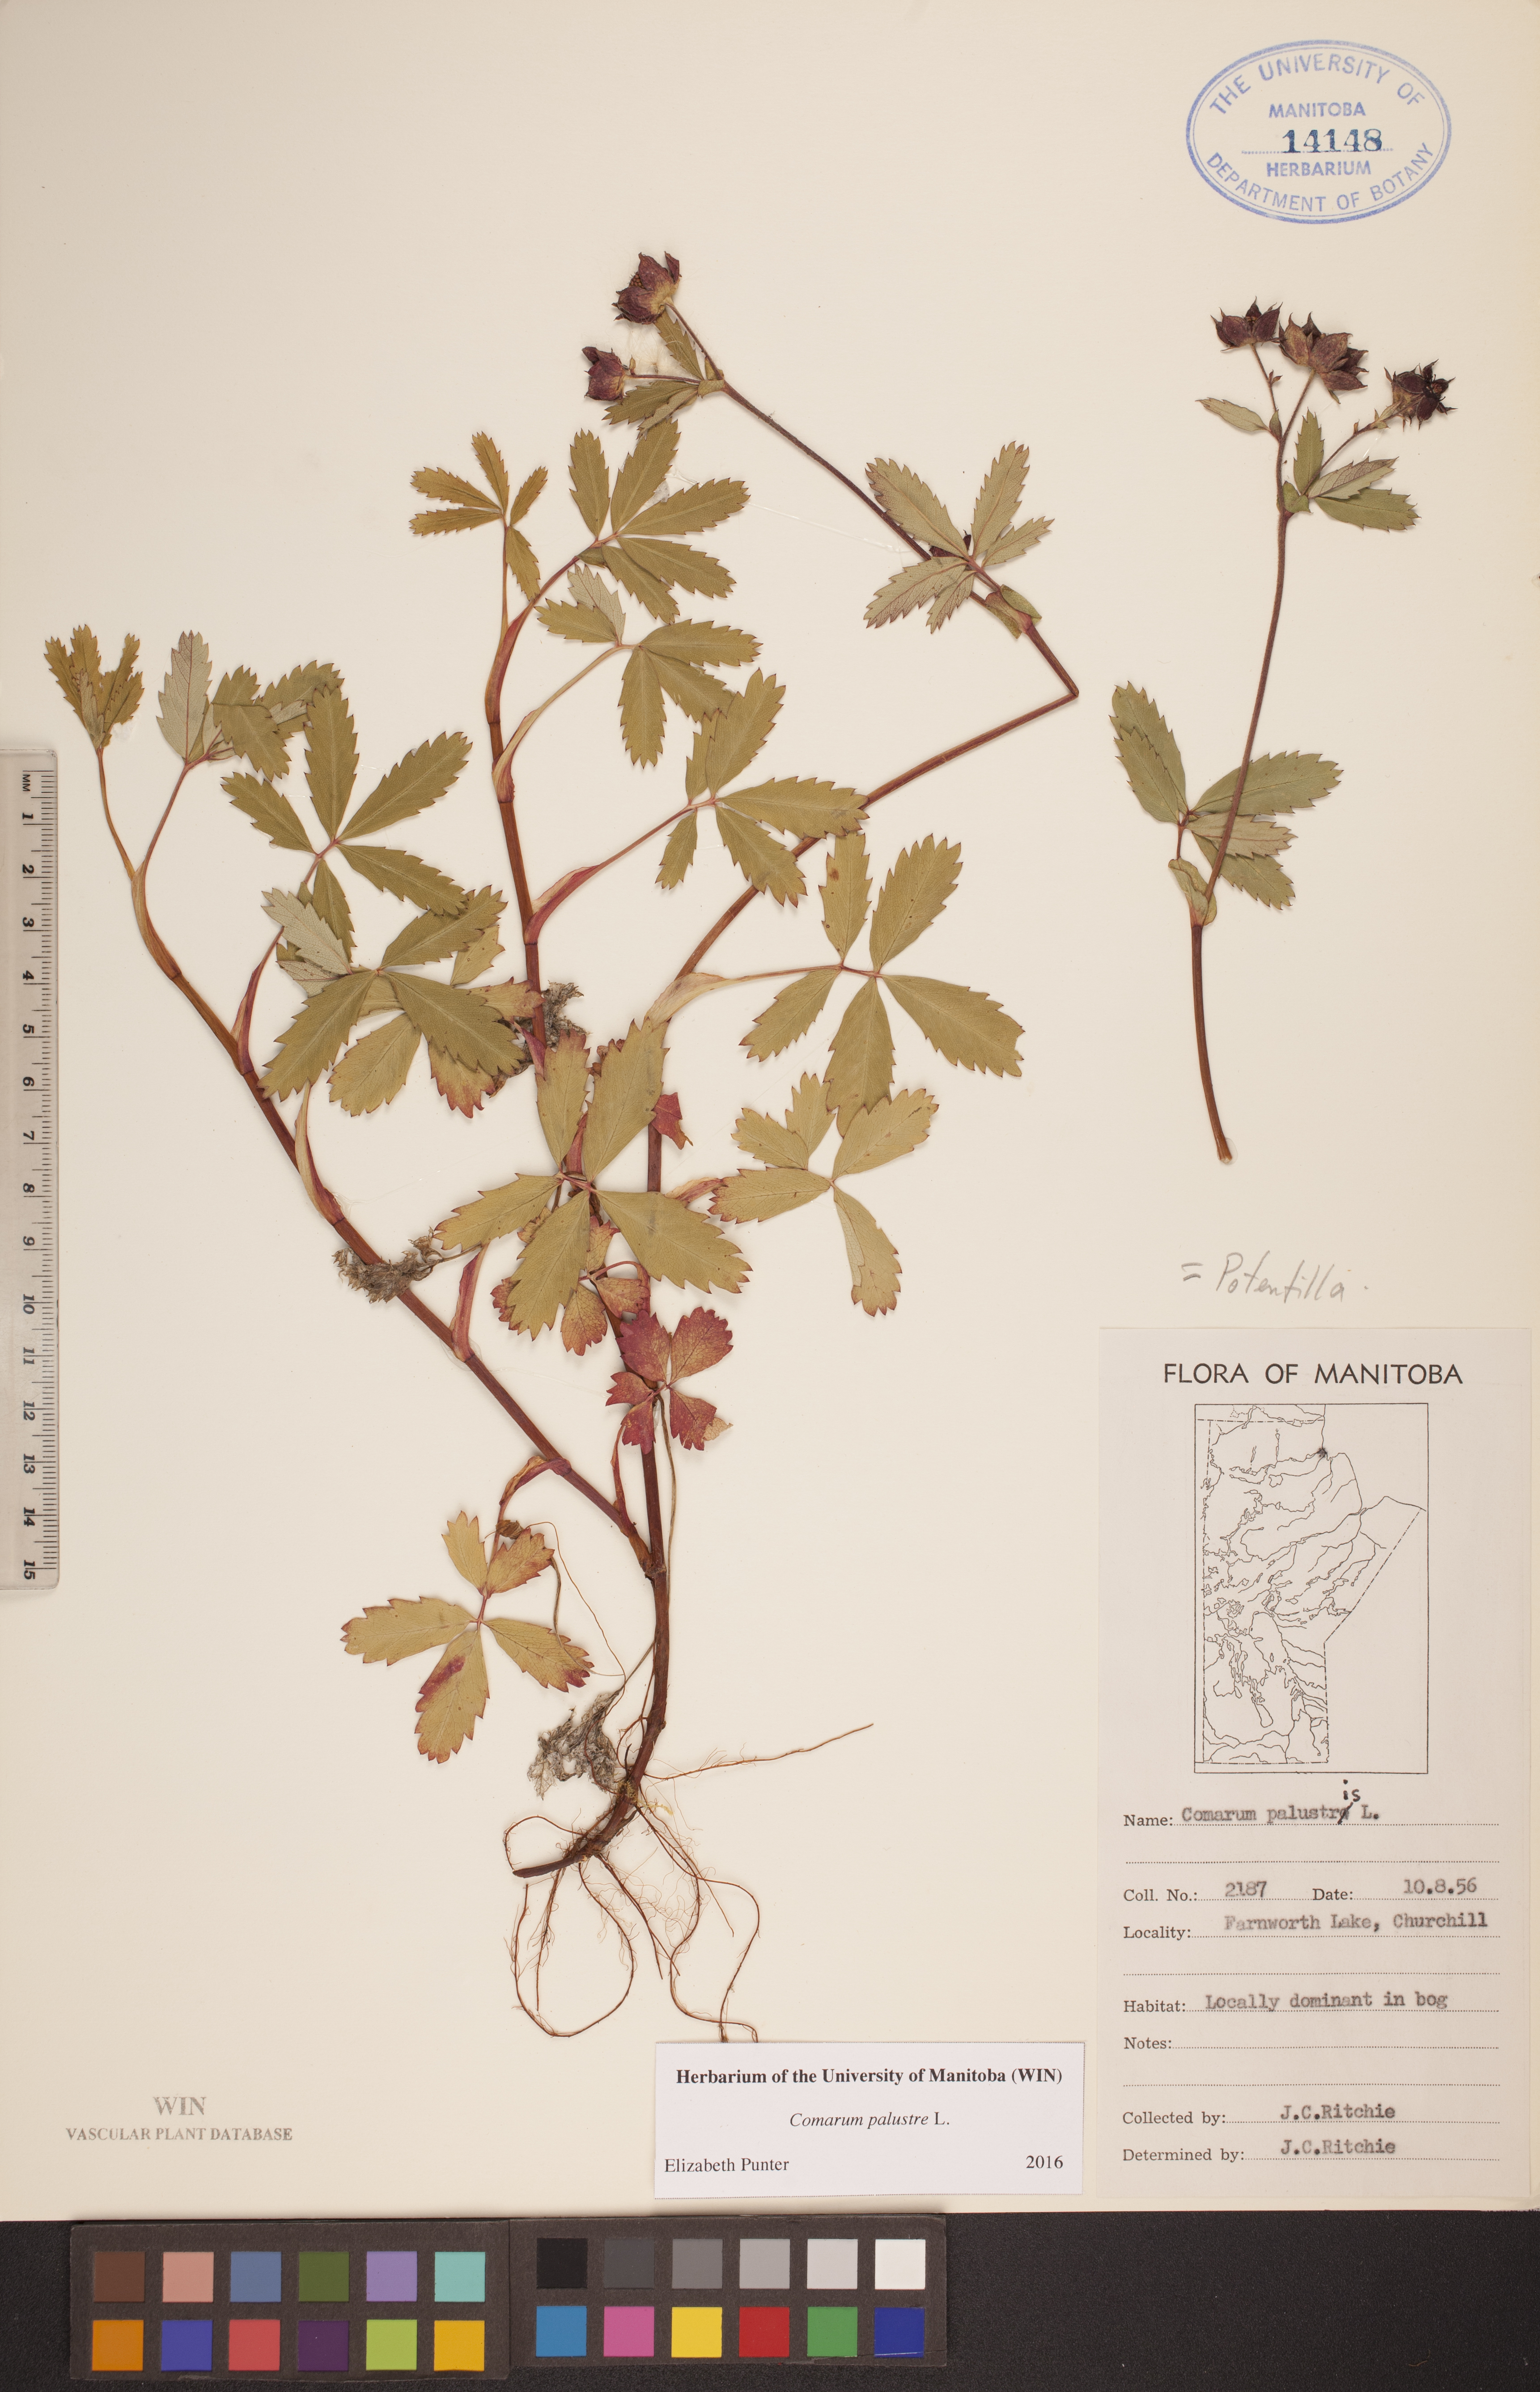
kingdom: Plantae
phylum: Tracheophyta
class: Magnoliopsida
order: Rosales
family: Rosaceae
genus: Comarum
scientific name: Comarum palustre
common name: Marsh cinquefoil
